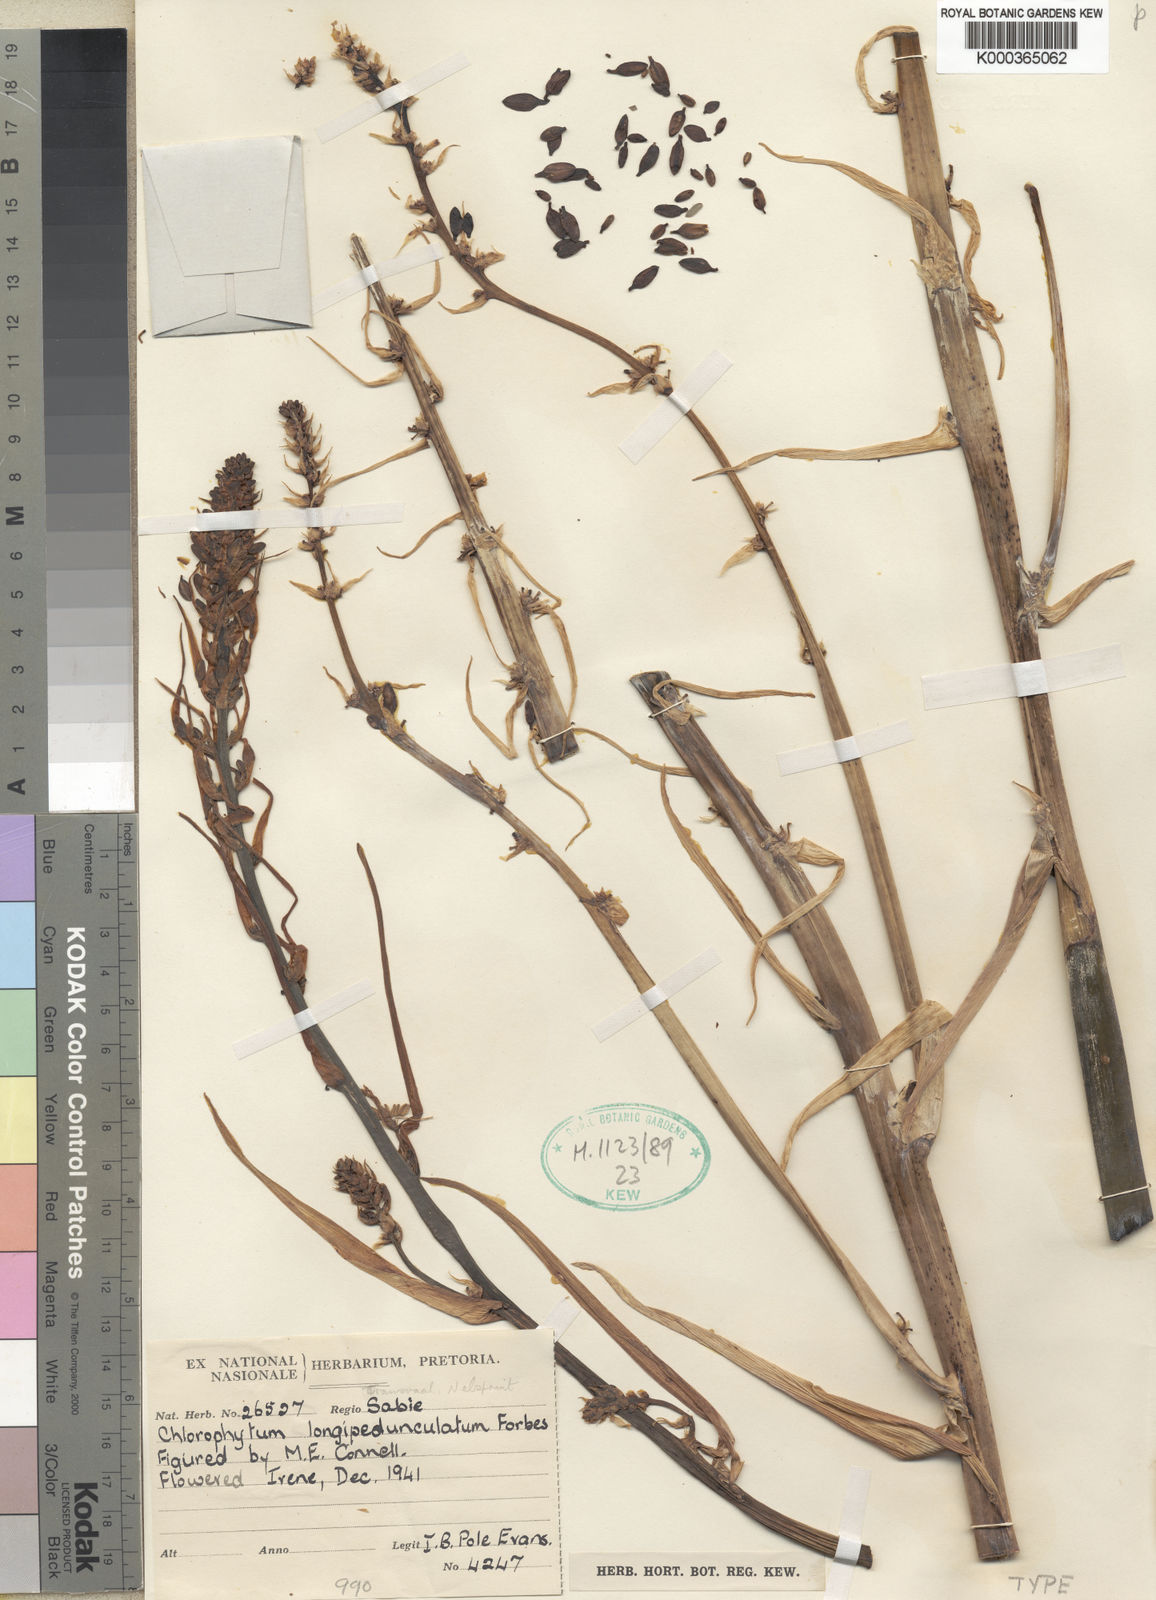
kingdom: Plantae
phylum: Tracheophyta
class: Liliopsida
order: Asparagales
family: Asparagaceae
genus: Chlorophytum
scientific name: Chlorophytum
